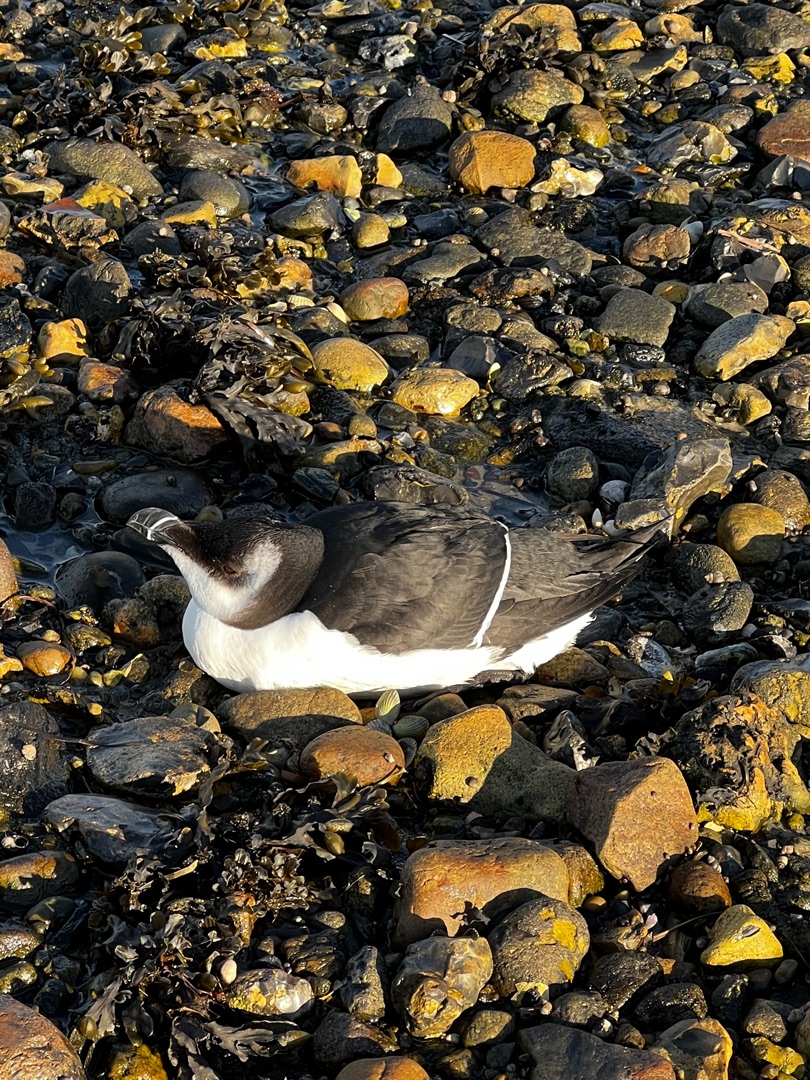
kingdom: Animalia
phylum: Chordata
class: Aves
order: Charadriiformes
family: Alcidae
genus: Alca
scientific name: Alca torda
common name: Alk
